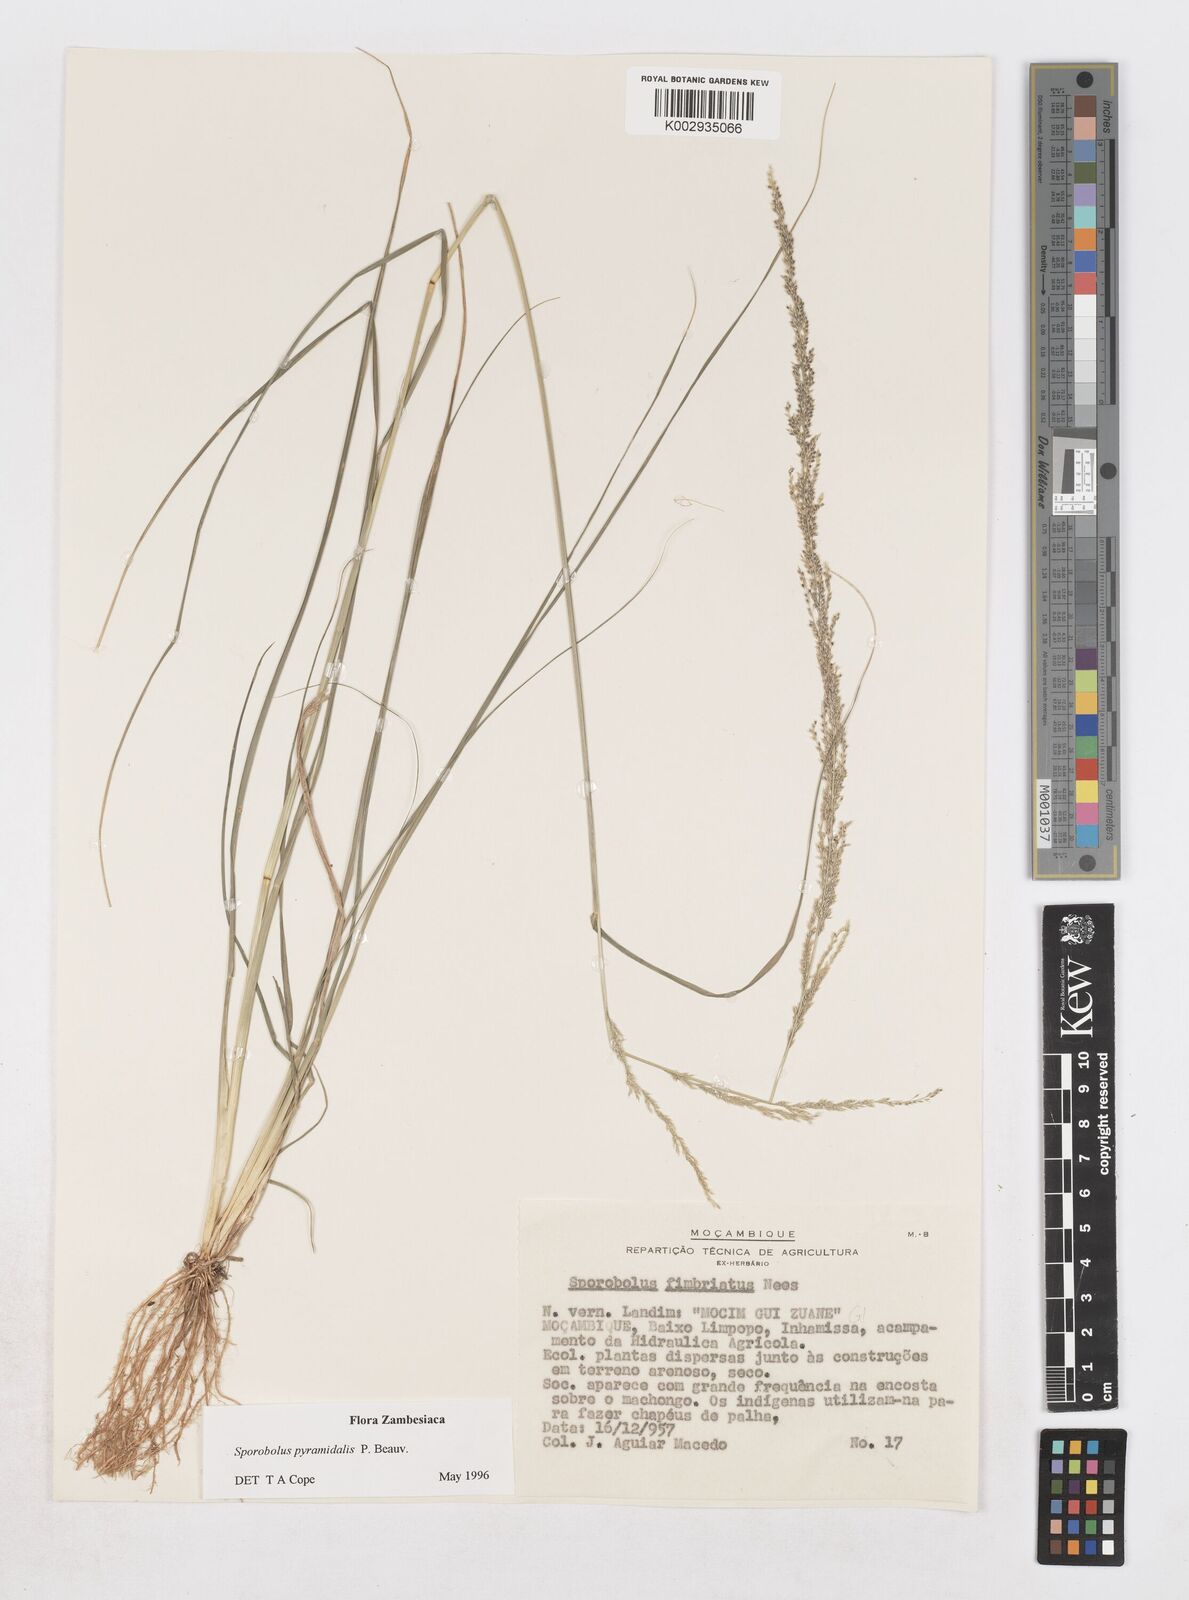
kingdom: Plantae
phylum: Tracheophyta
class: Liliopsida
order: Poales
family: Poaceae
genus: Sporobolus
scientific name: Sporobolus pyramidalis
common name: West indian dropseed
